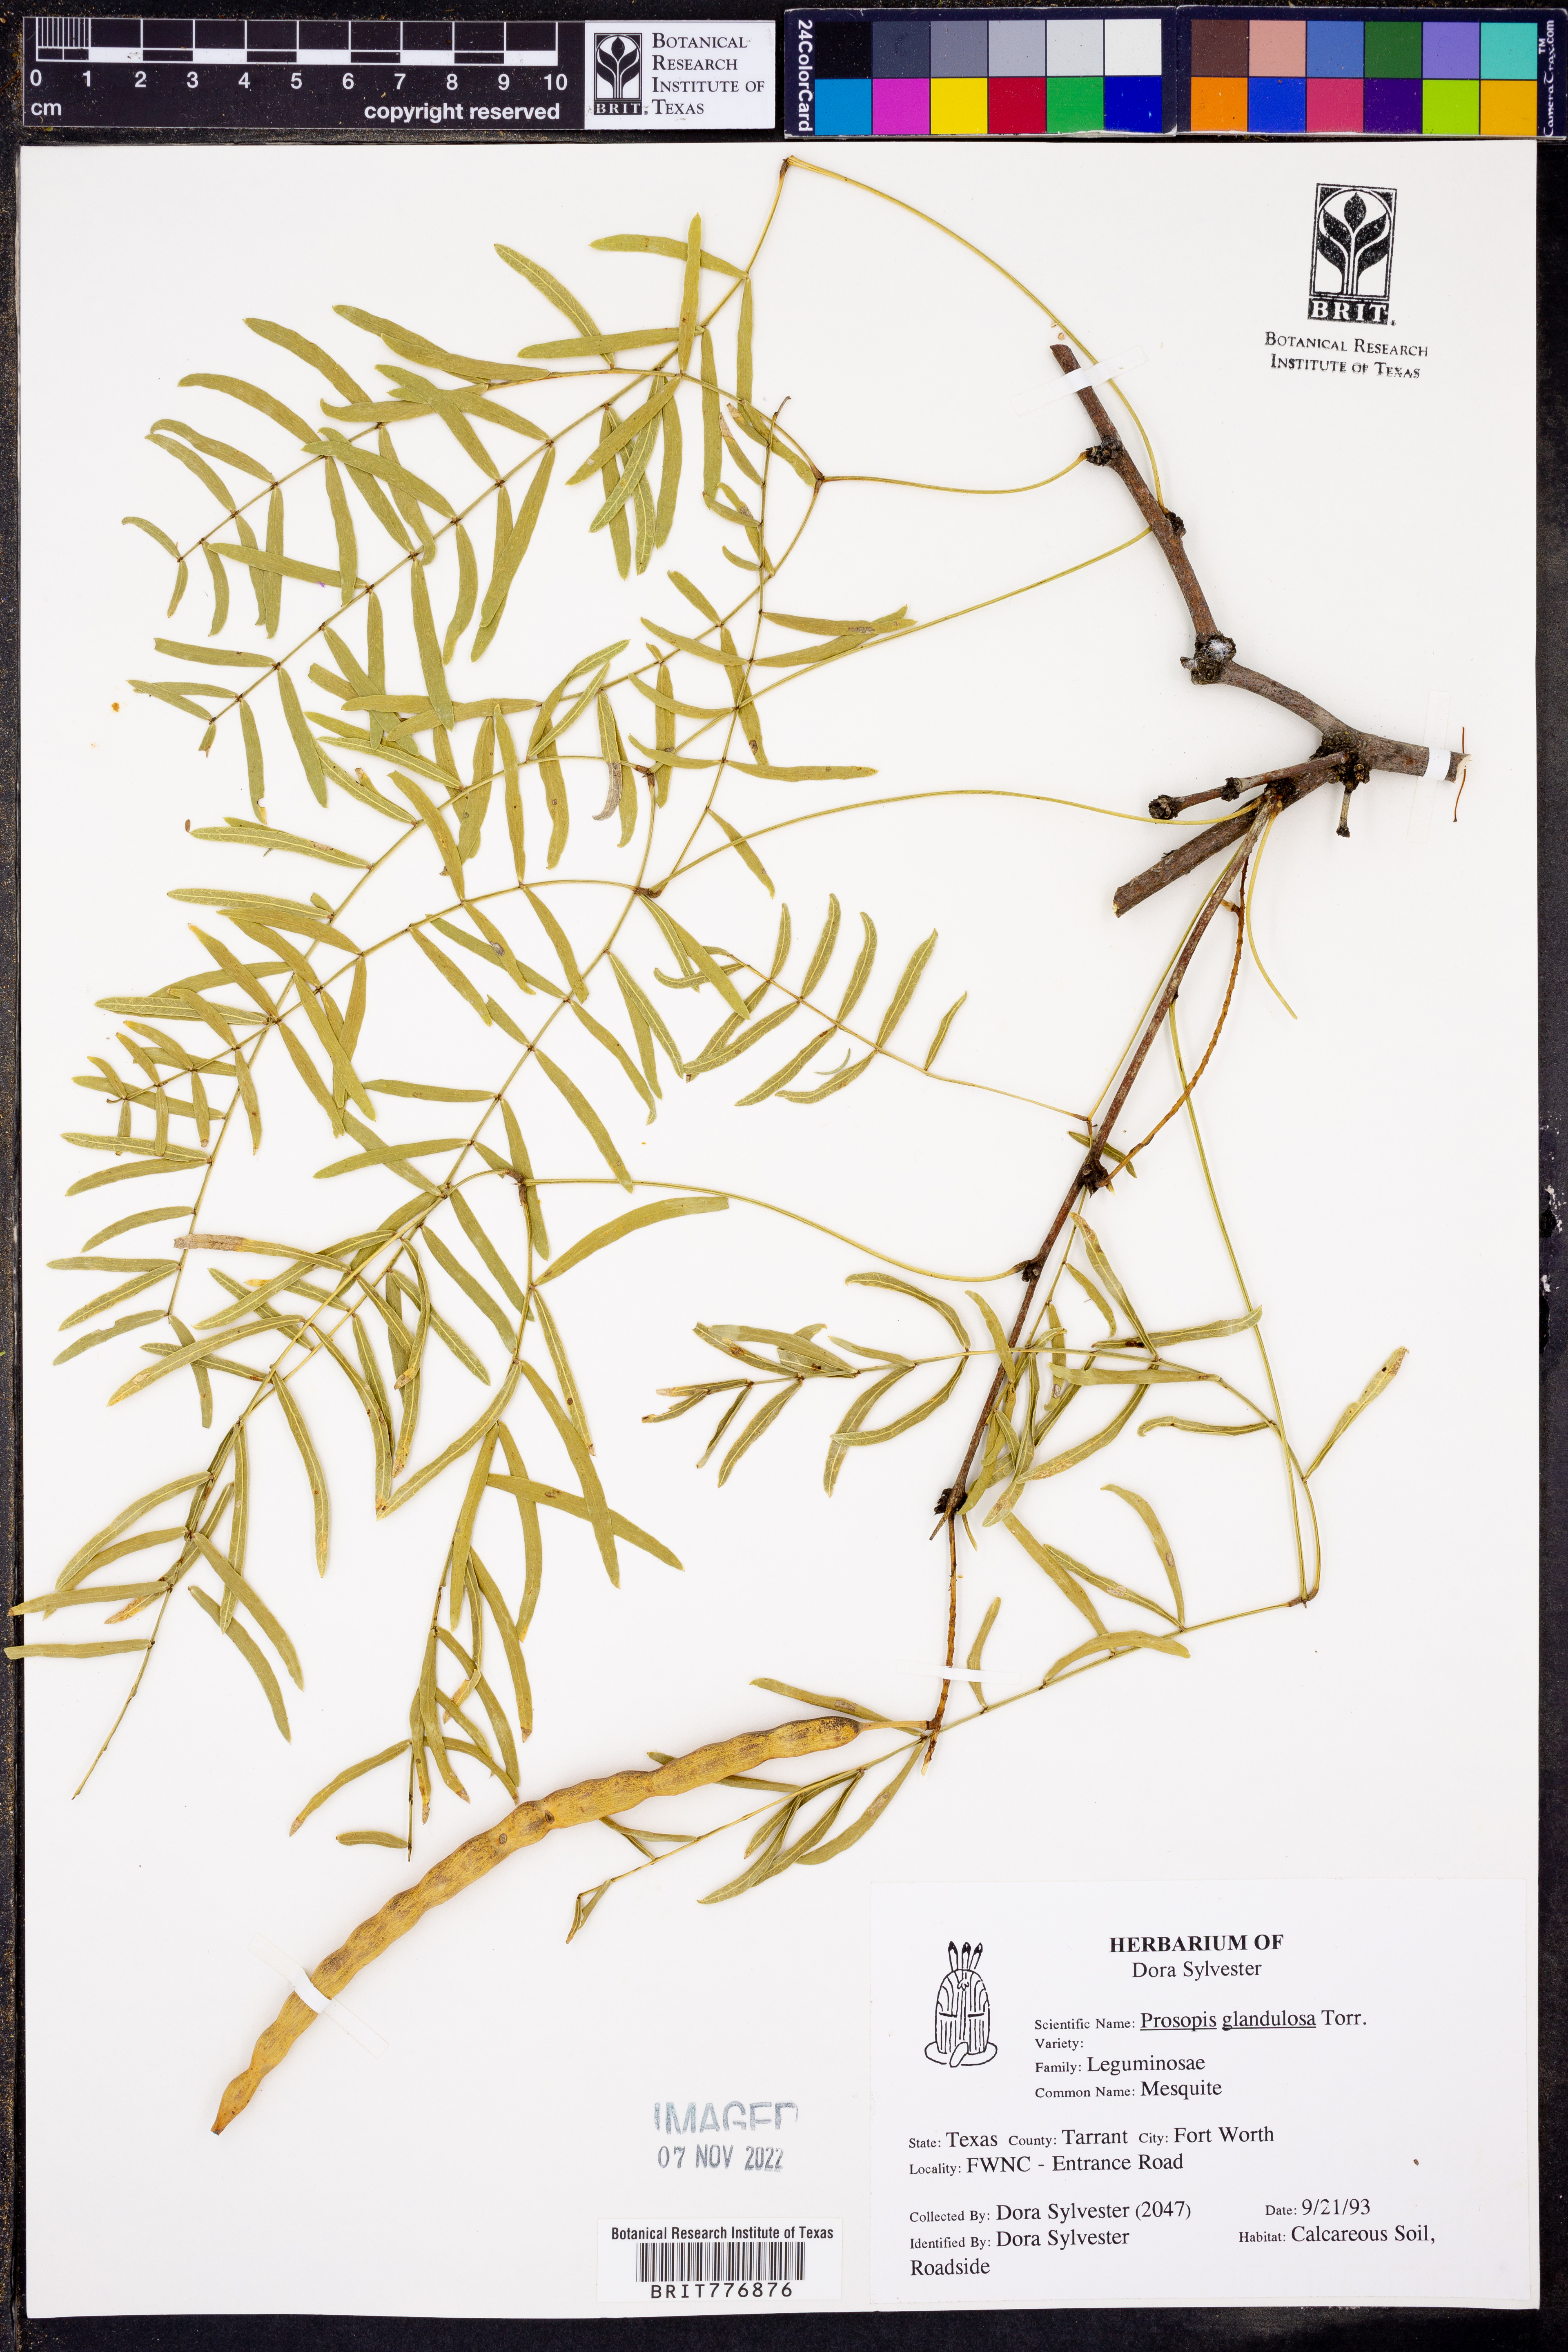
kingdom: Plantae
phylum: Tracheophyta
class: Magnoliopsida
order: Fabales
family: Fabaceae
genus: Prosopis
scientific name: Prosopis glandulosa
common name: Honey mesquite
